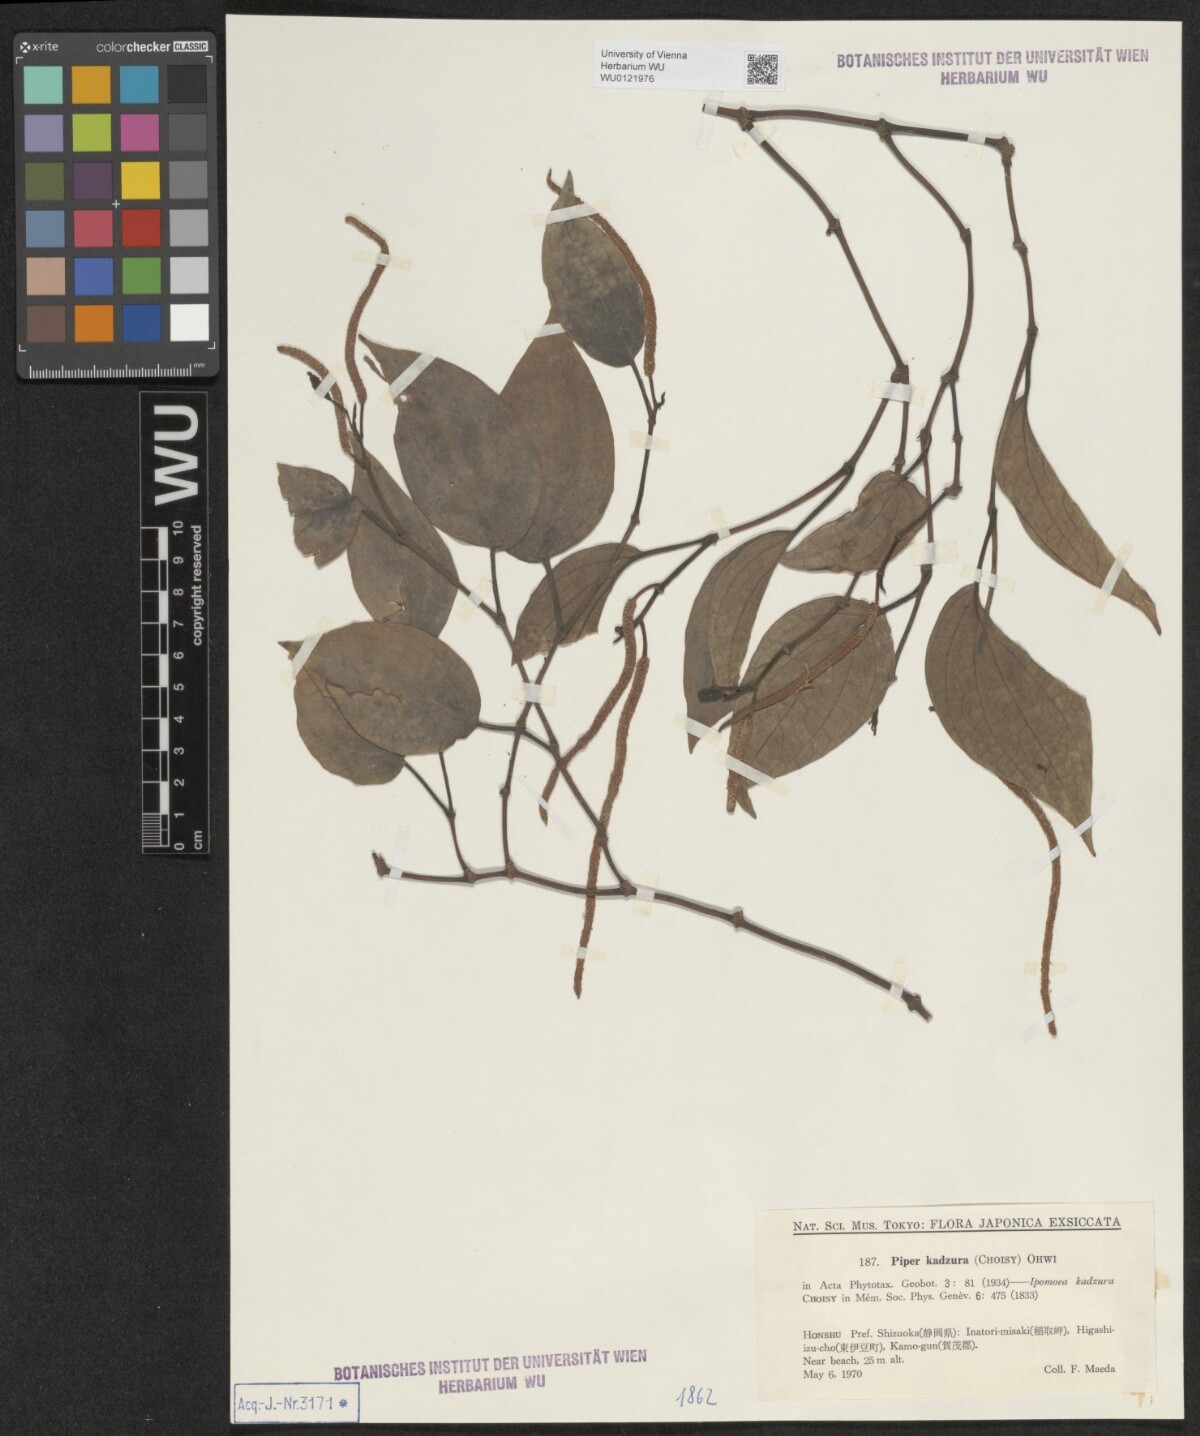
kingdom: Plantae
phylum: Tracheophyta
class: Magnoliopsida
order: Piperales
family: Piperaceae
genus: Piper
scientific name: Piper kadsura
